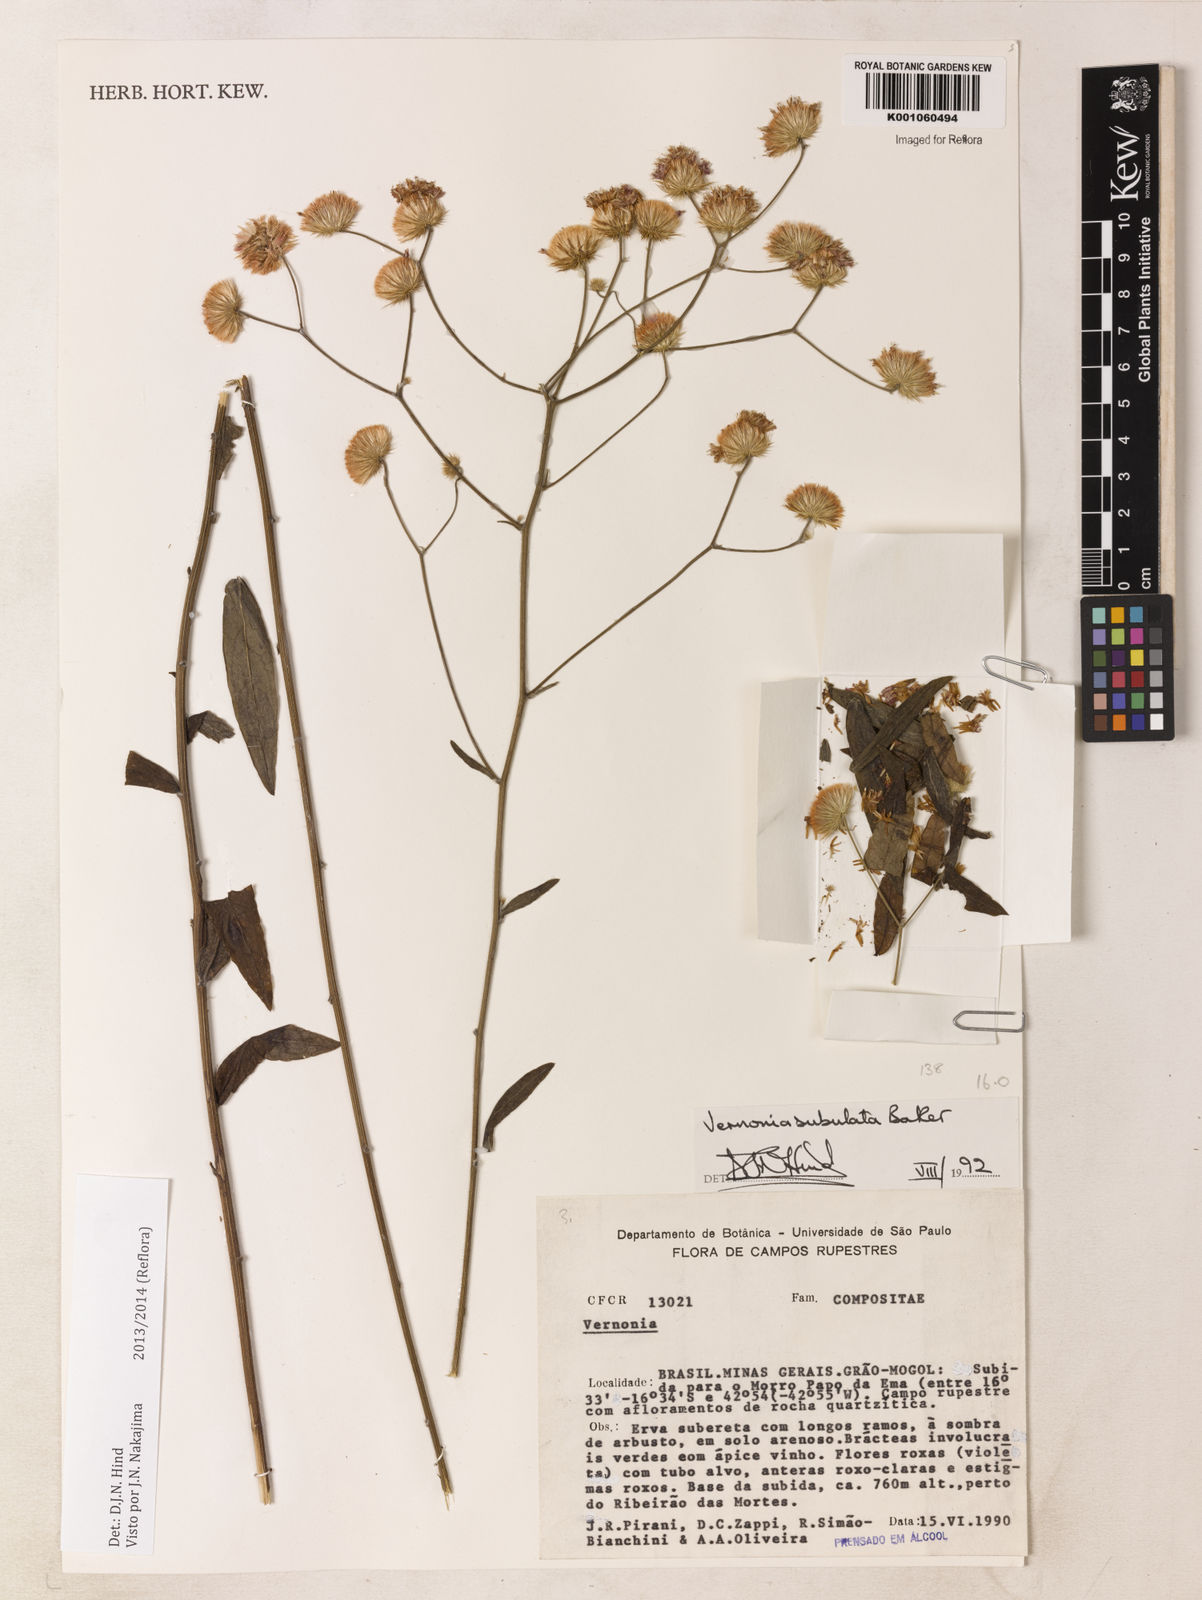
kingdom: Plantae
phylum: Tracheophyta
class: Magnoliopsida
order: Asterales
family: Asteraceae
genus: Echinocoryne
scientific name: Echinocoryne subulata
